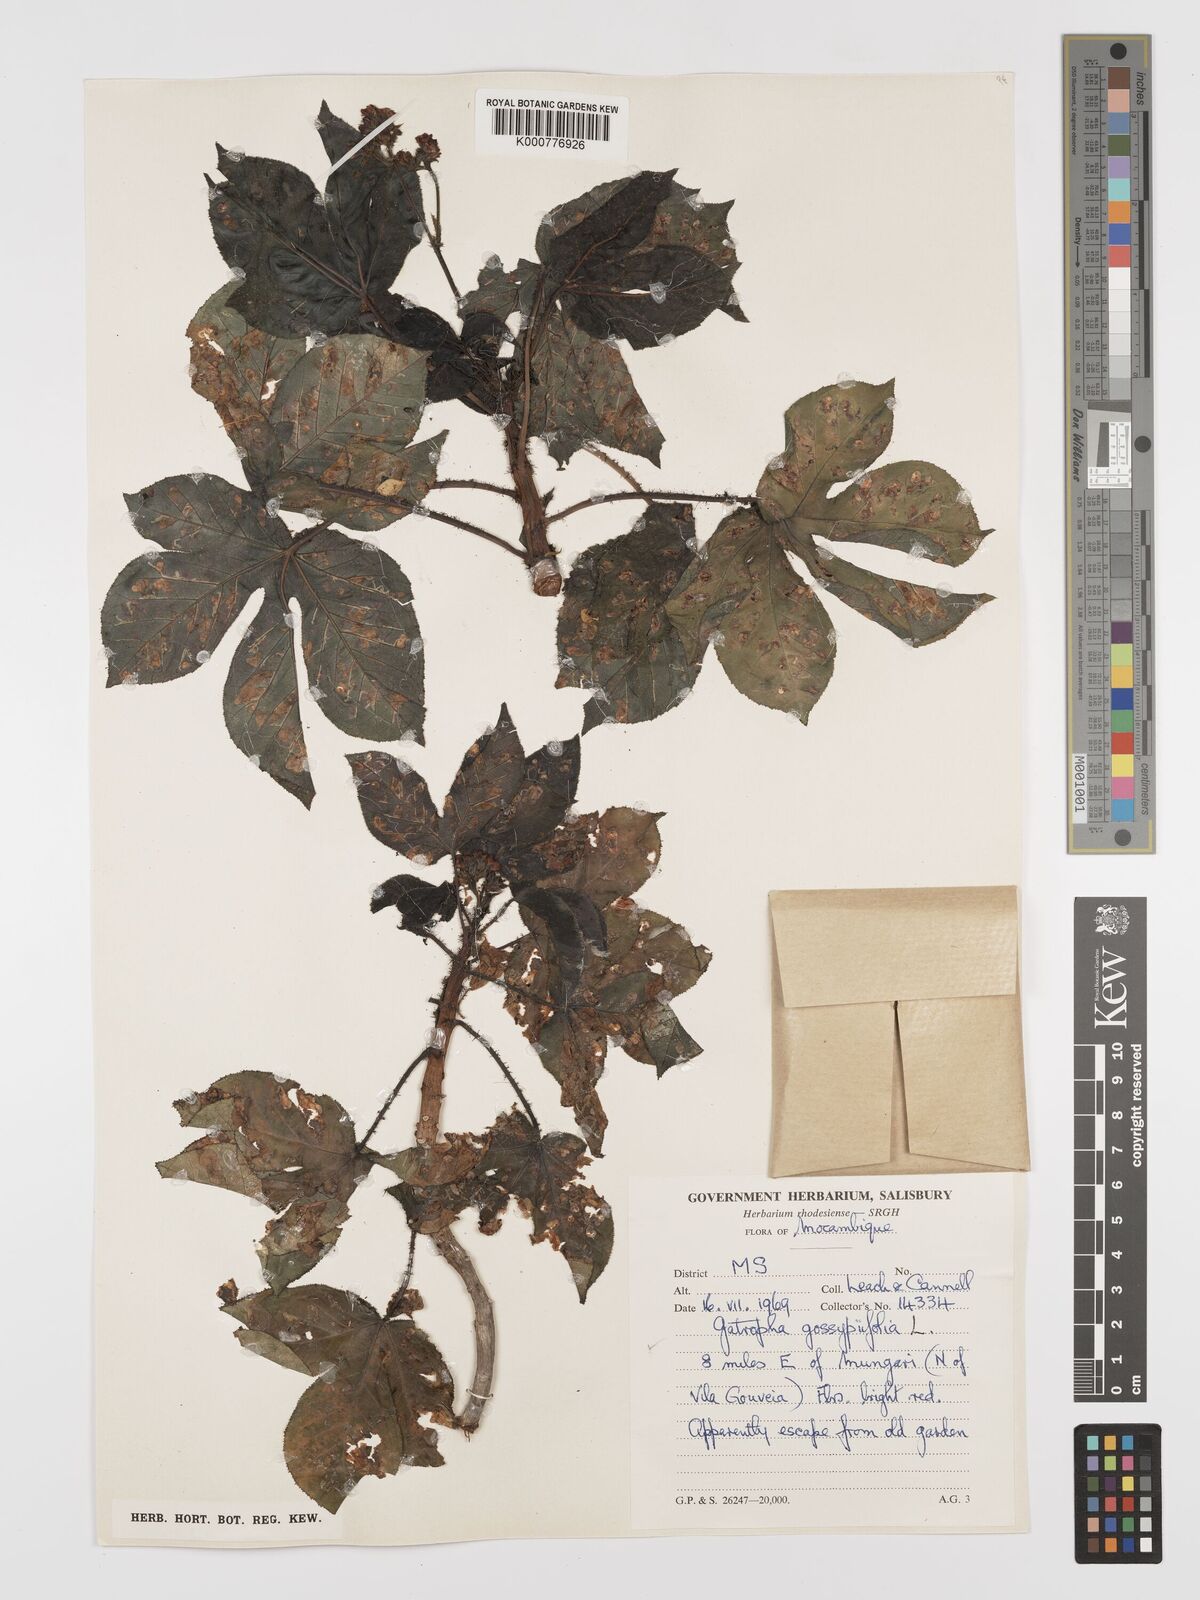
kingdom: Plantae
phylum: Tracheophyta
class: Magnoliopsida
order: Malpighiales
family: Euphorbiaceae
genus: Jatropha
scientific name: Jatropha gossypiifolia
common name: Bellyache bush
